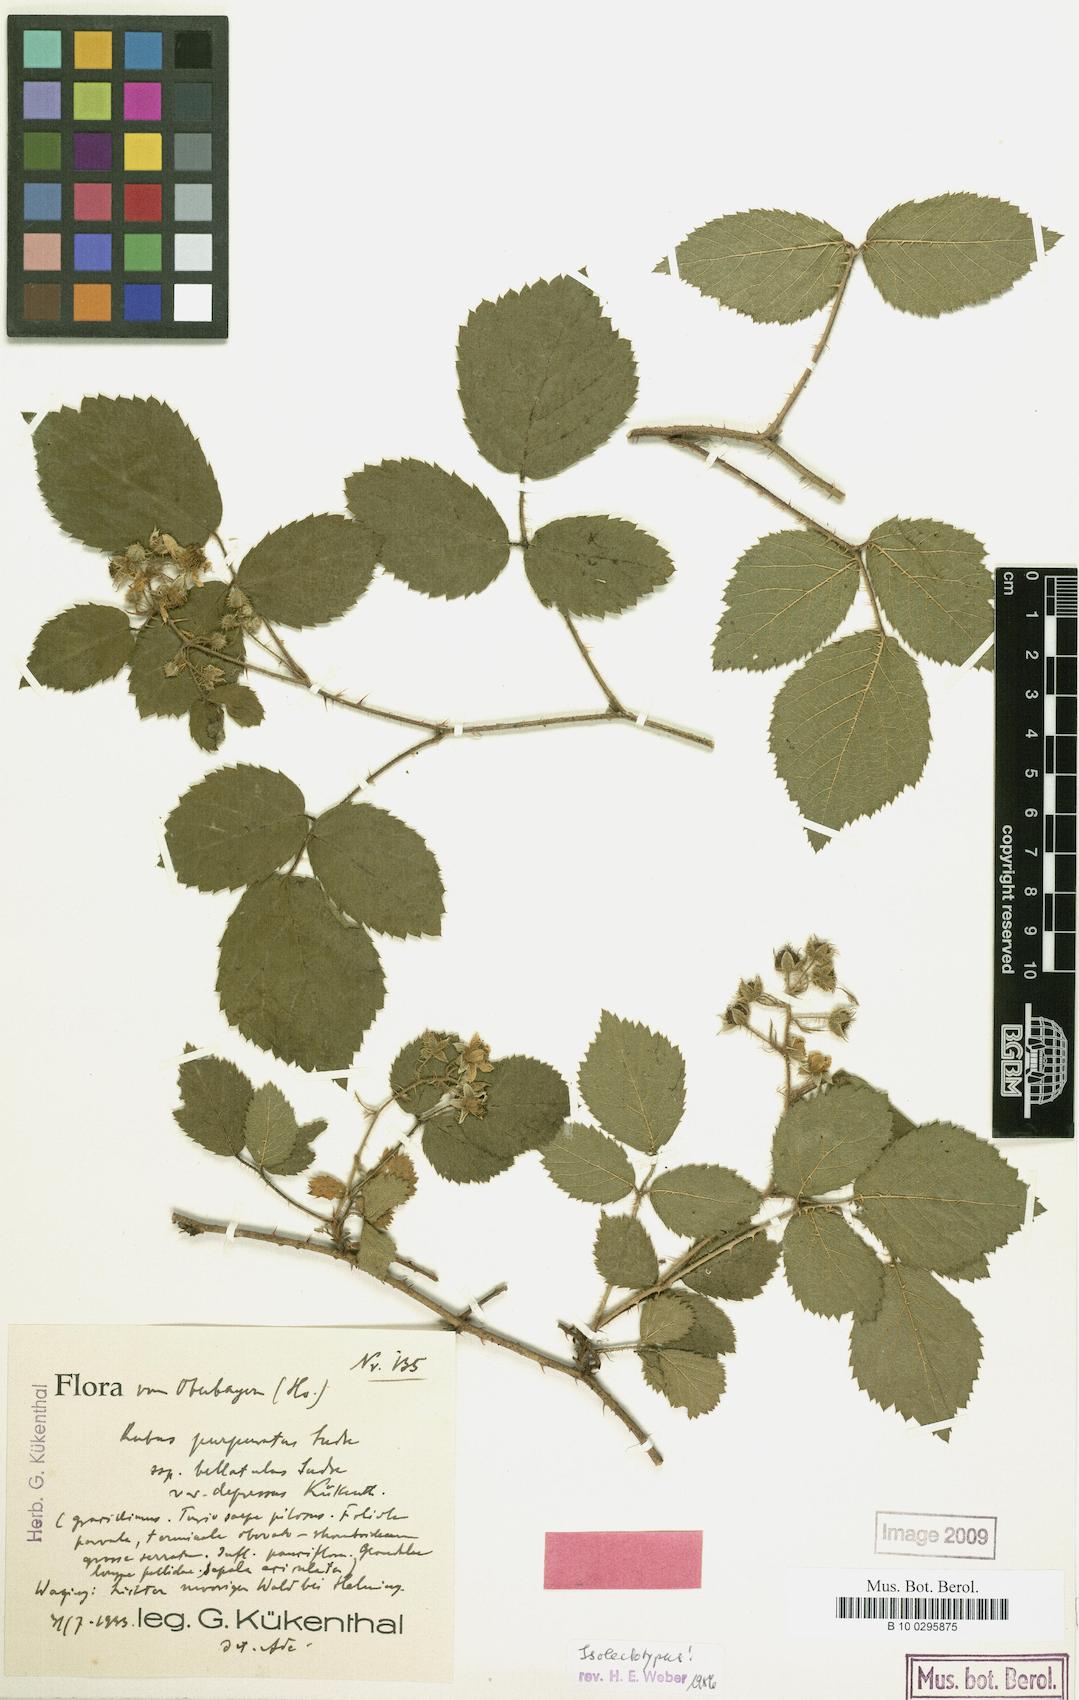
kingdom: Plantae
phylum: Tracheophyta
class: Magnoliopsida
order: Rosales
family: Rosaceae
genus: Rubus
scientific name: Rubus amoenus
